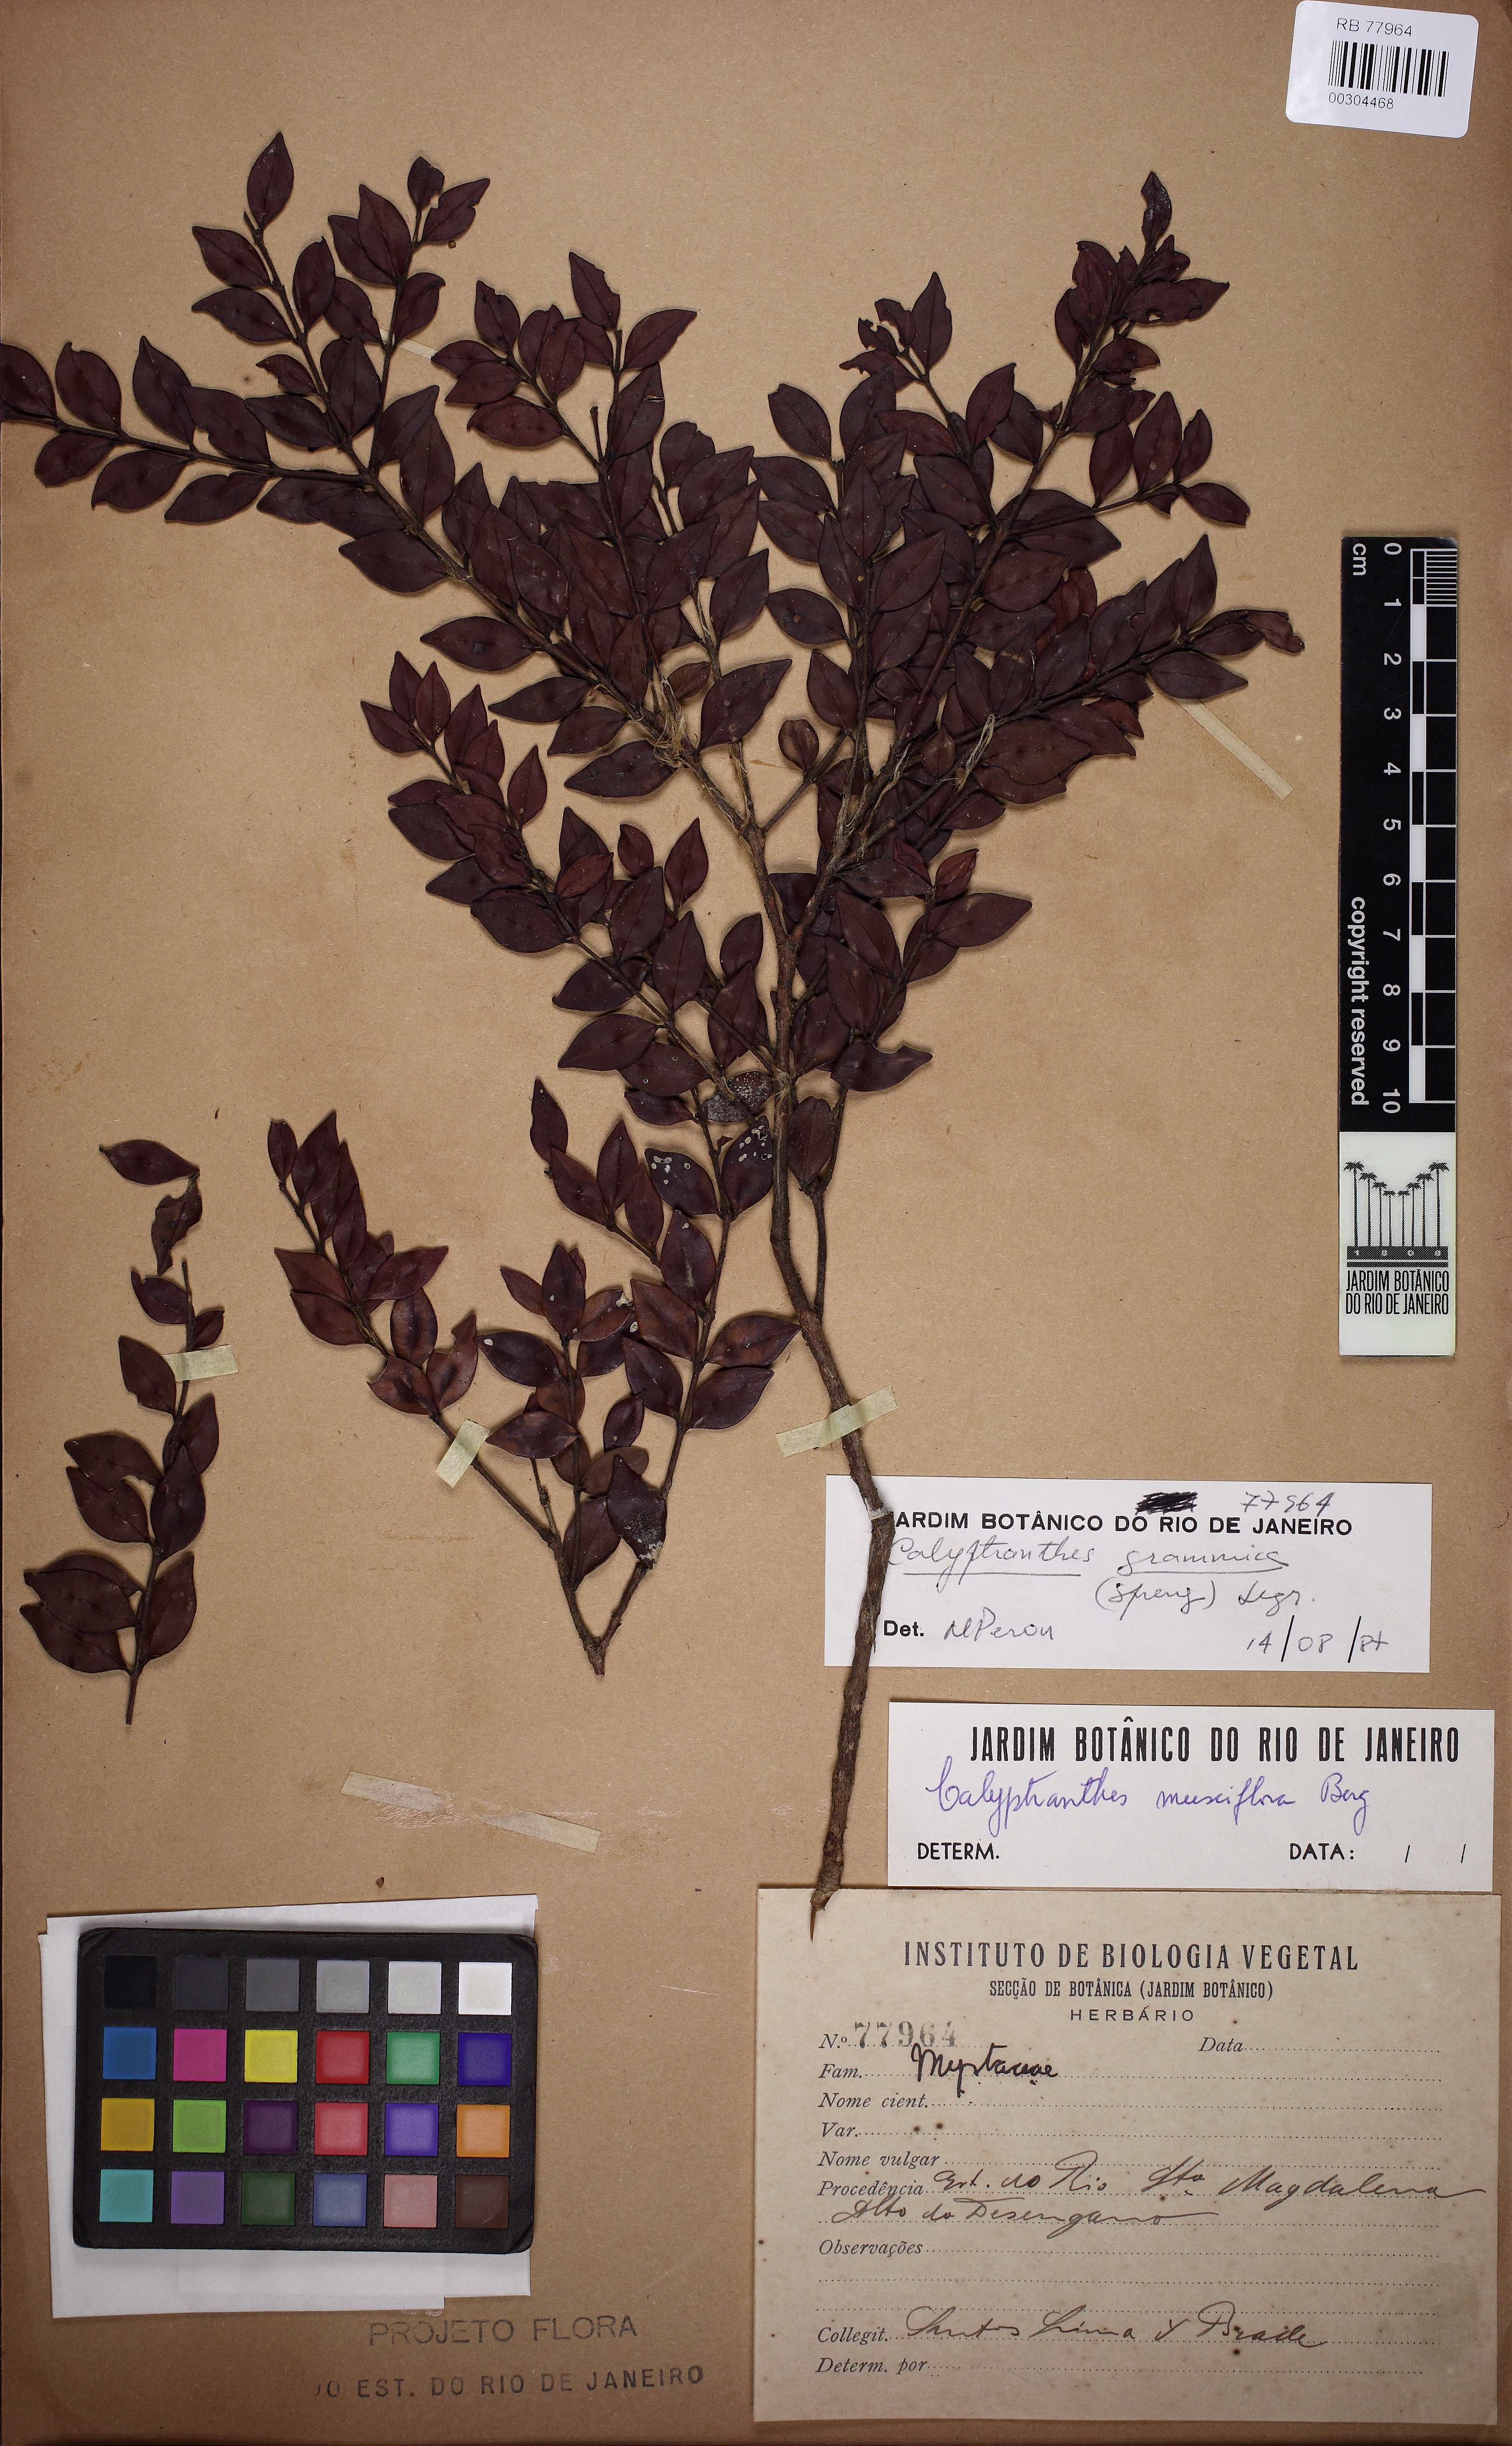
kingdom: Plantae
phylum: Tracheophyta
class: Magnoliopsida
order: Myrtales
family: Myrtaceae
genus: Myrcia
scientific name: Myrcia grammica
